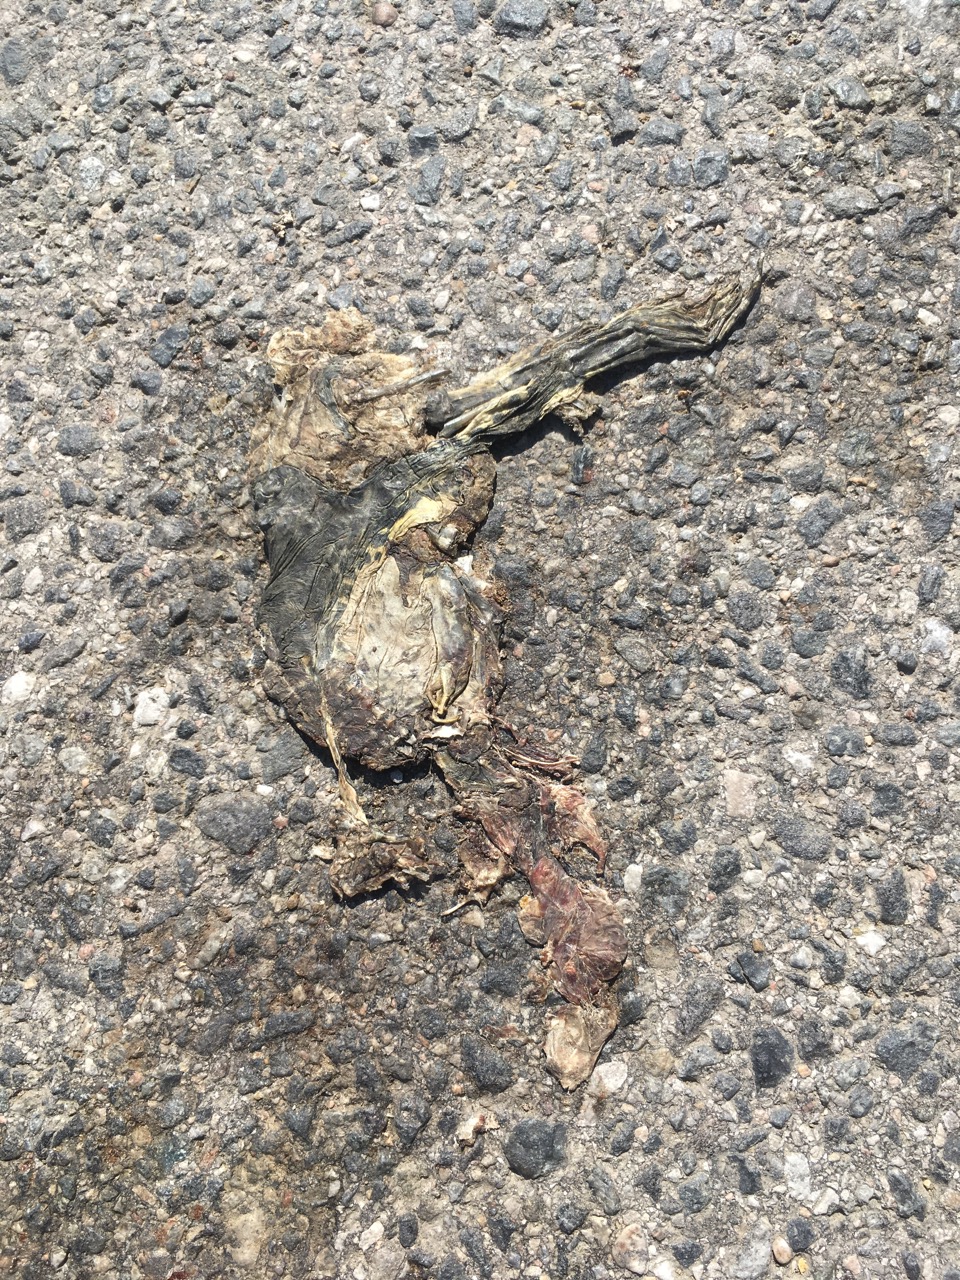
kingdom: Animalia
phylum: Chordata
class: Amphibia
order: Anura
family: Bufonidae
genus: Bufotes
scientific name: Bufotes viridis
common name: European green toad
